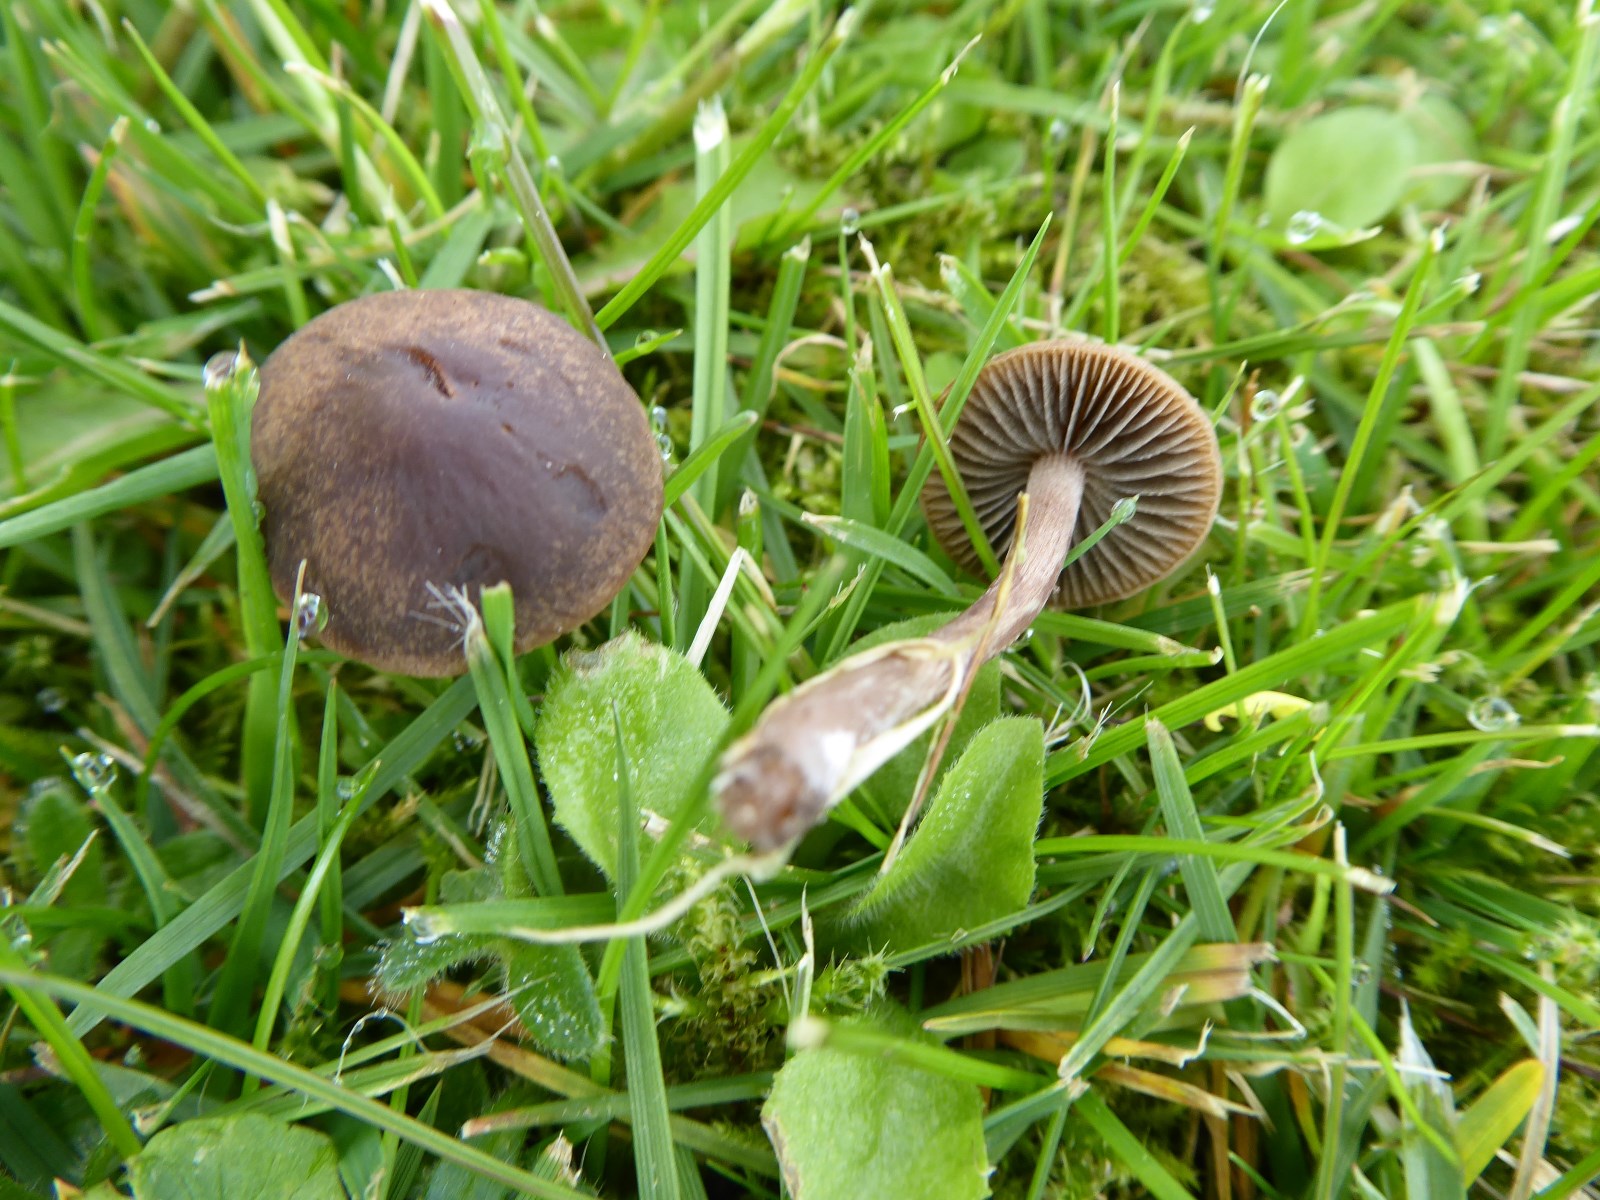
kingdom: Fungi
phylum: Basidiomycota
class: Agaricomycetes
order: Agaricales
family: Bolbitiaceae
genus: Panaeolina
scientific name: Panaeolina foenisecii
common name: høslætsvamp
